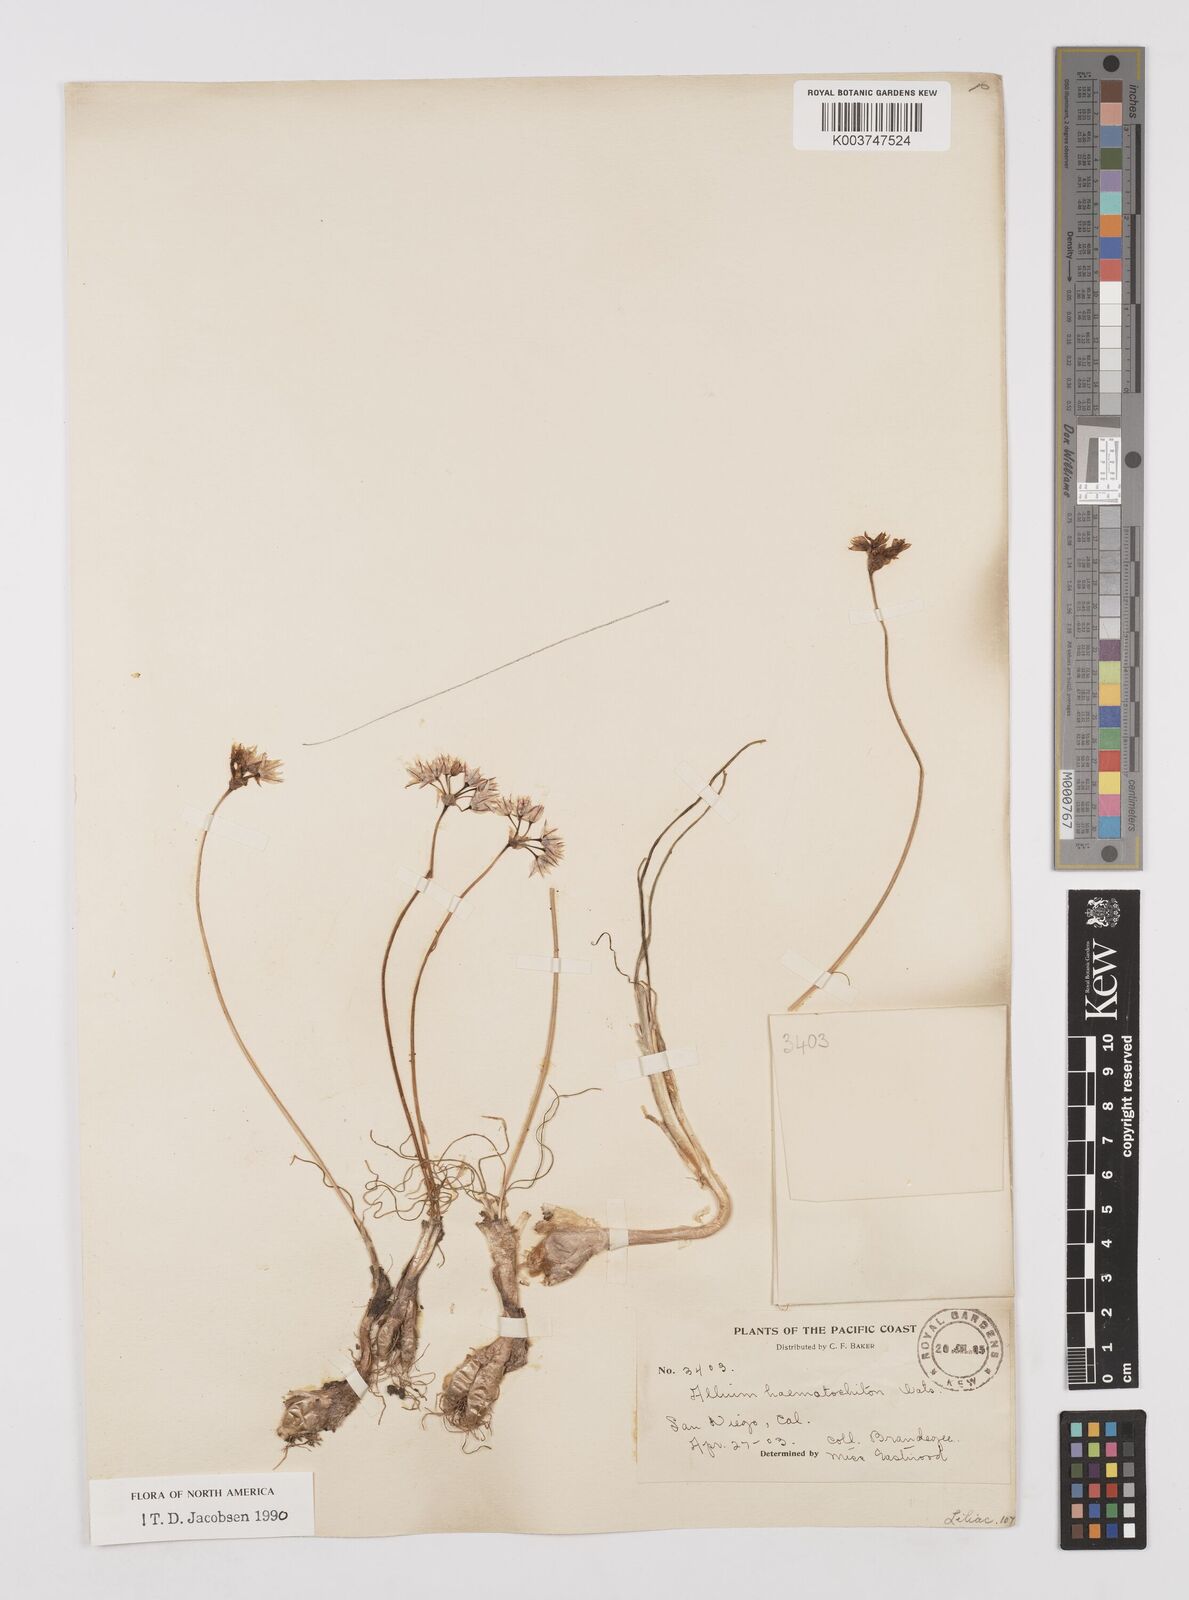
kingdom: Plantae
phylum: Tracheophyta
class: Liliopsida
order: Asparagales
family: Amaryllidaceae
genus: Allium
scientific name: Allium haematochiton
